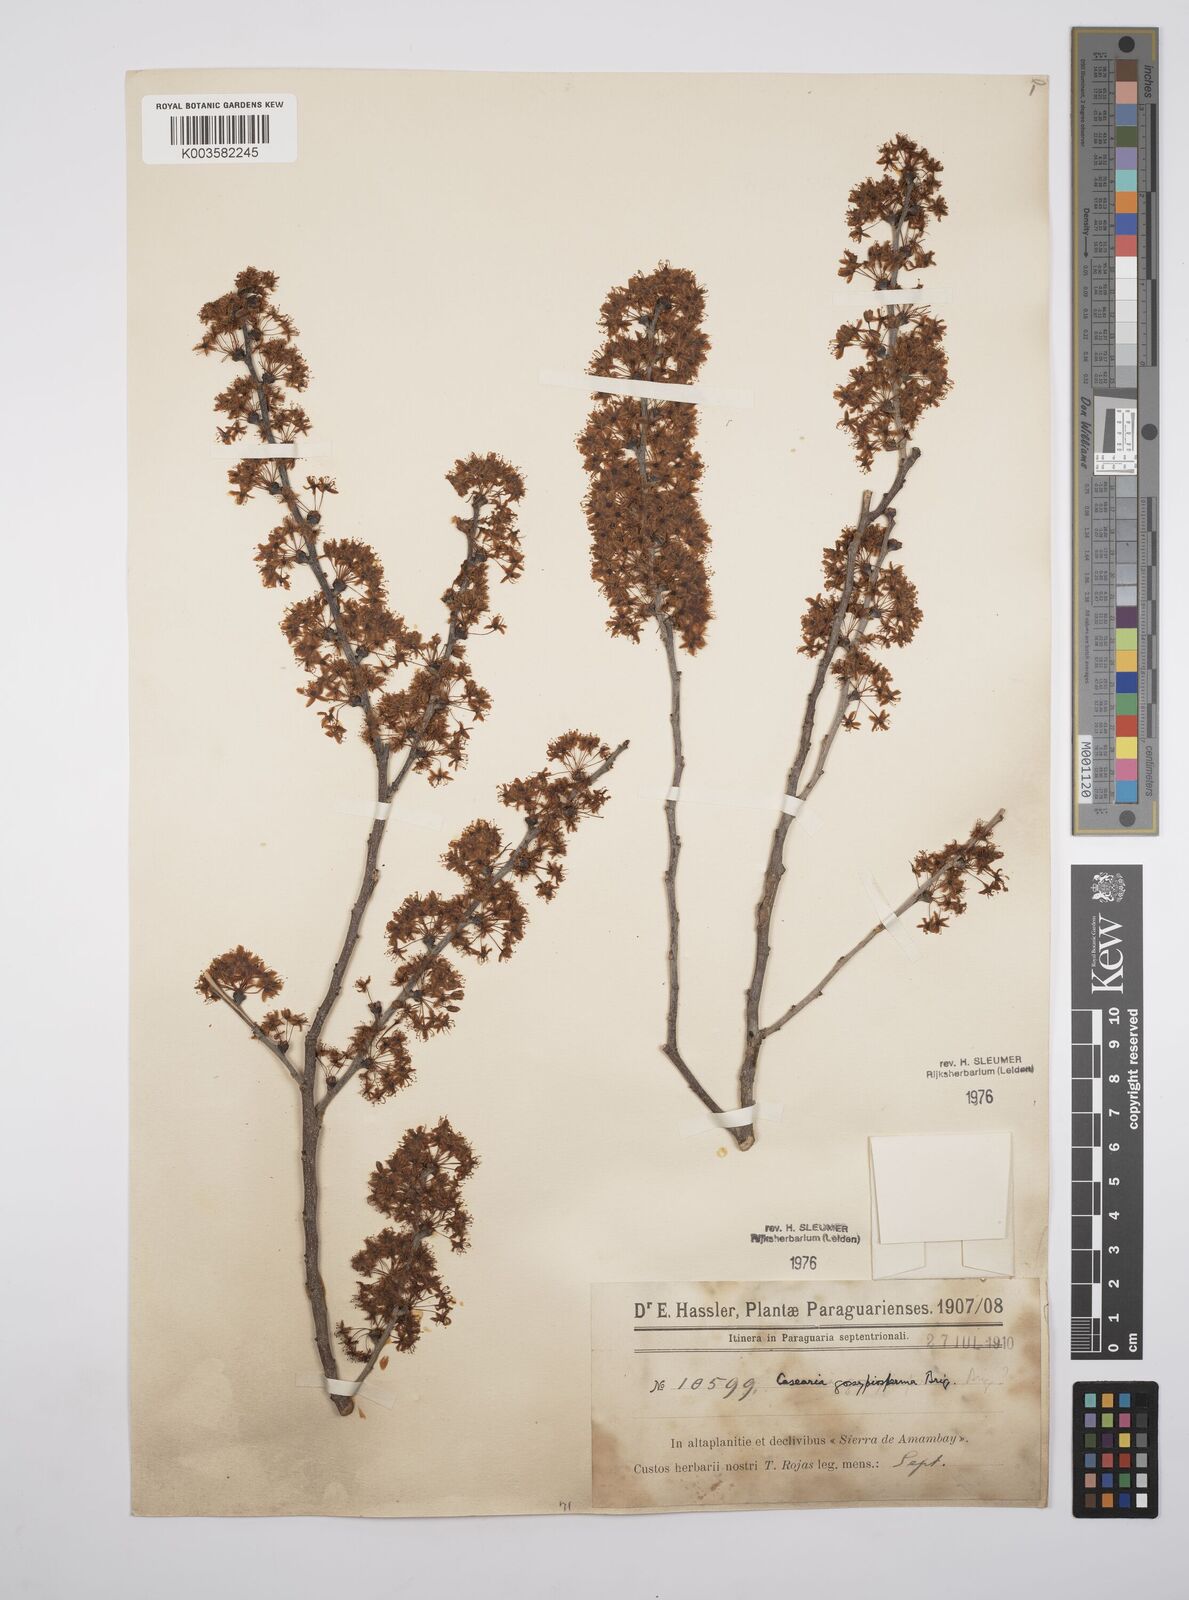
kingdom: Plantae
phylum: Tracheophyta
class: Magnoliopsida
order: Malpighiales
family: Salicaceae
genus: Casearia
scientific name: Casearia gossypiosperma
